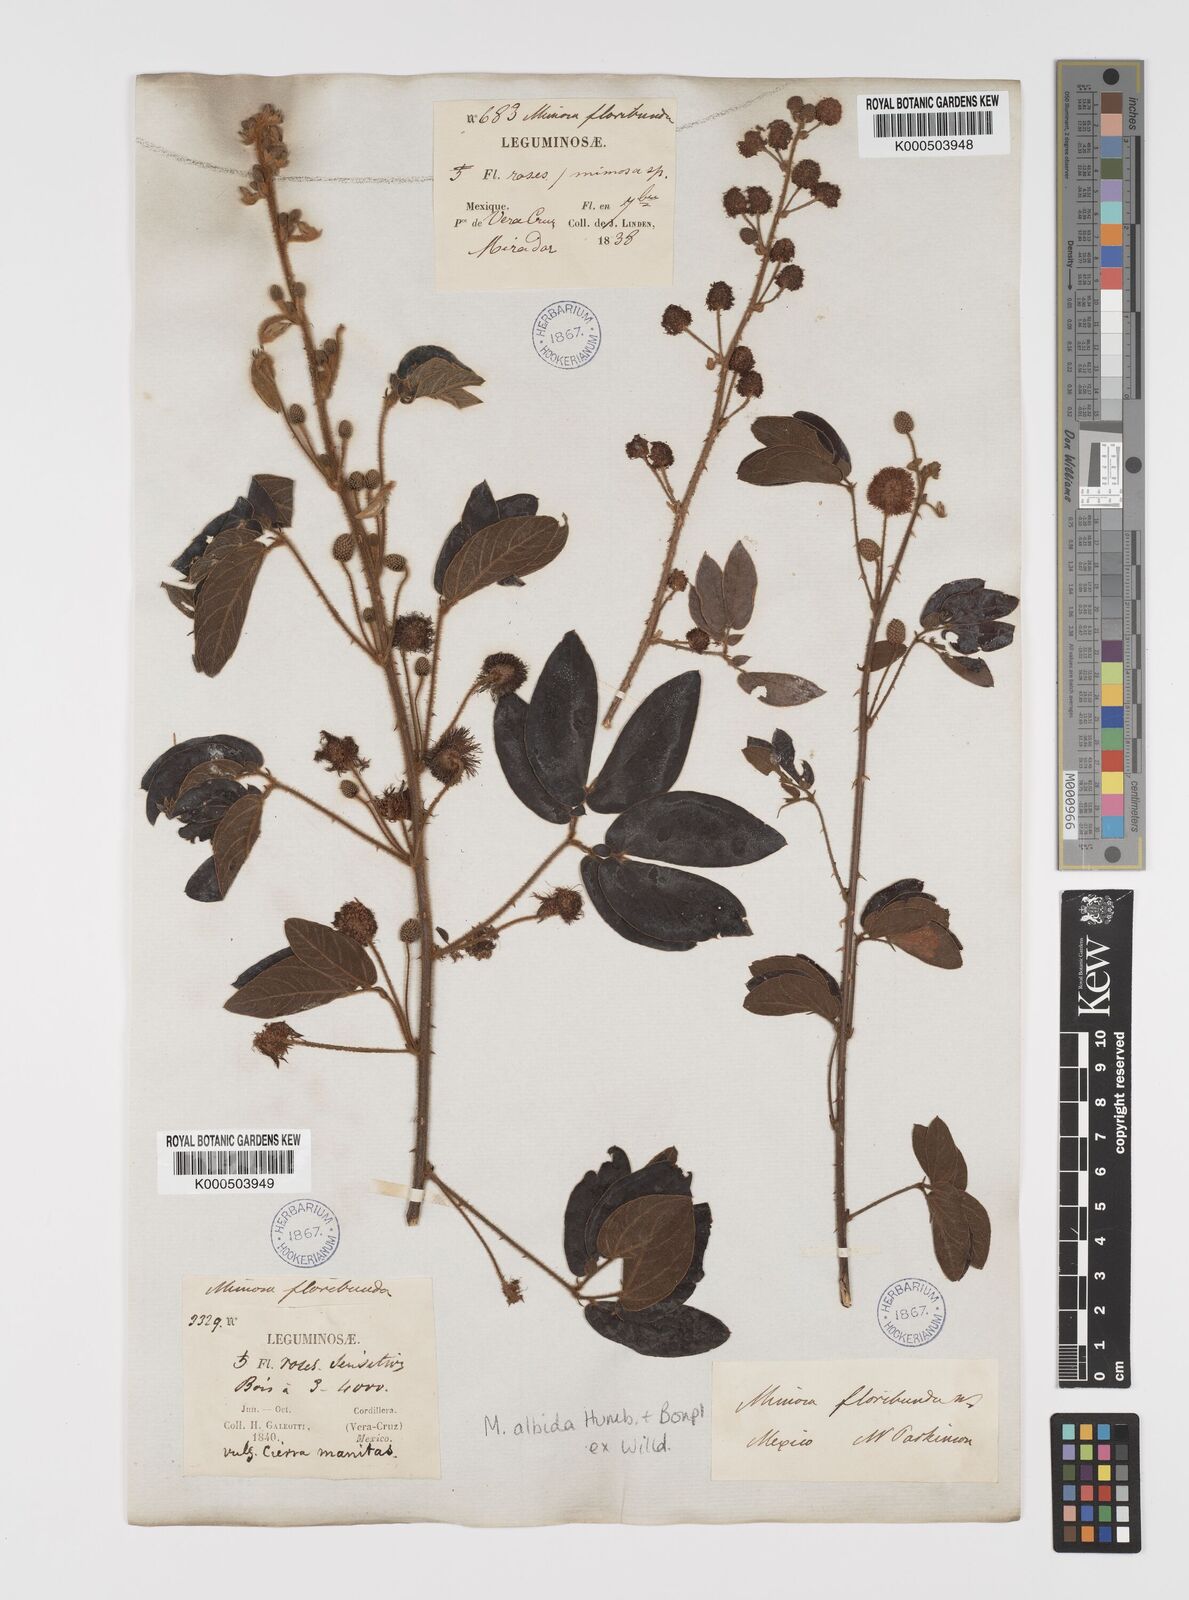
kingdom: Plantae
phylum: Tracheophyta
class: Magnoliopsida
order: Fabales
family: Fabaceae
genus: Mimosa
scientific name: Mimosa albida
